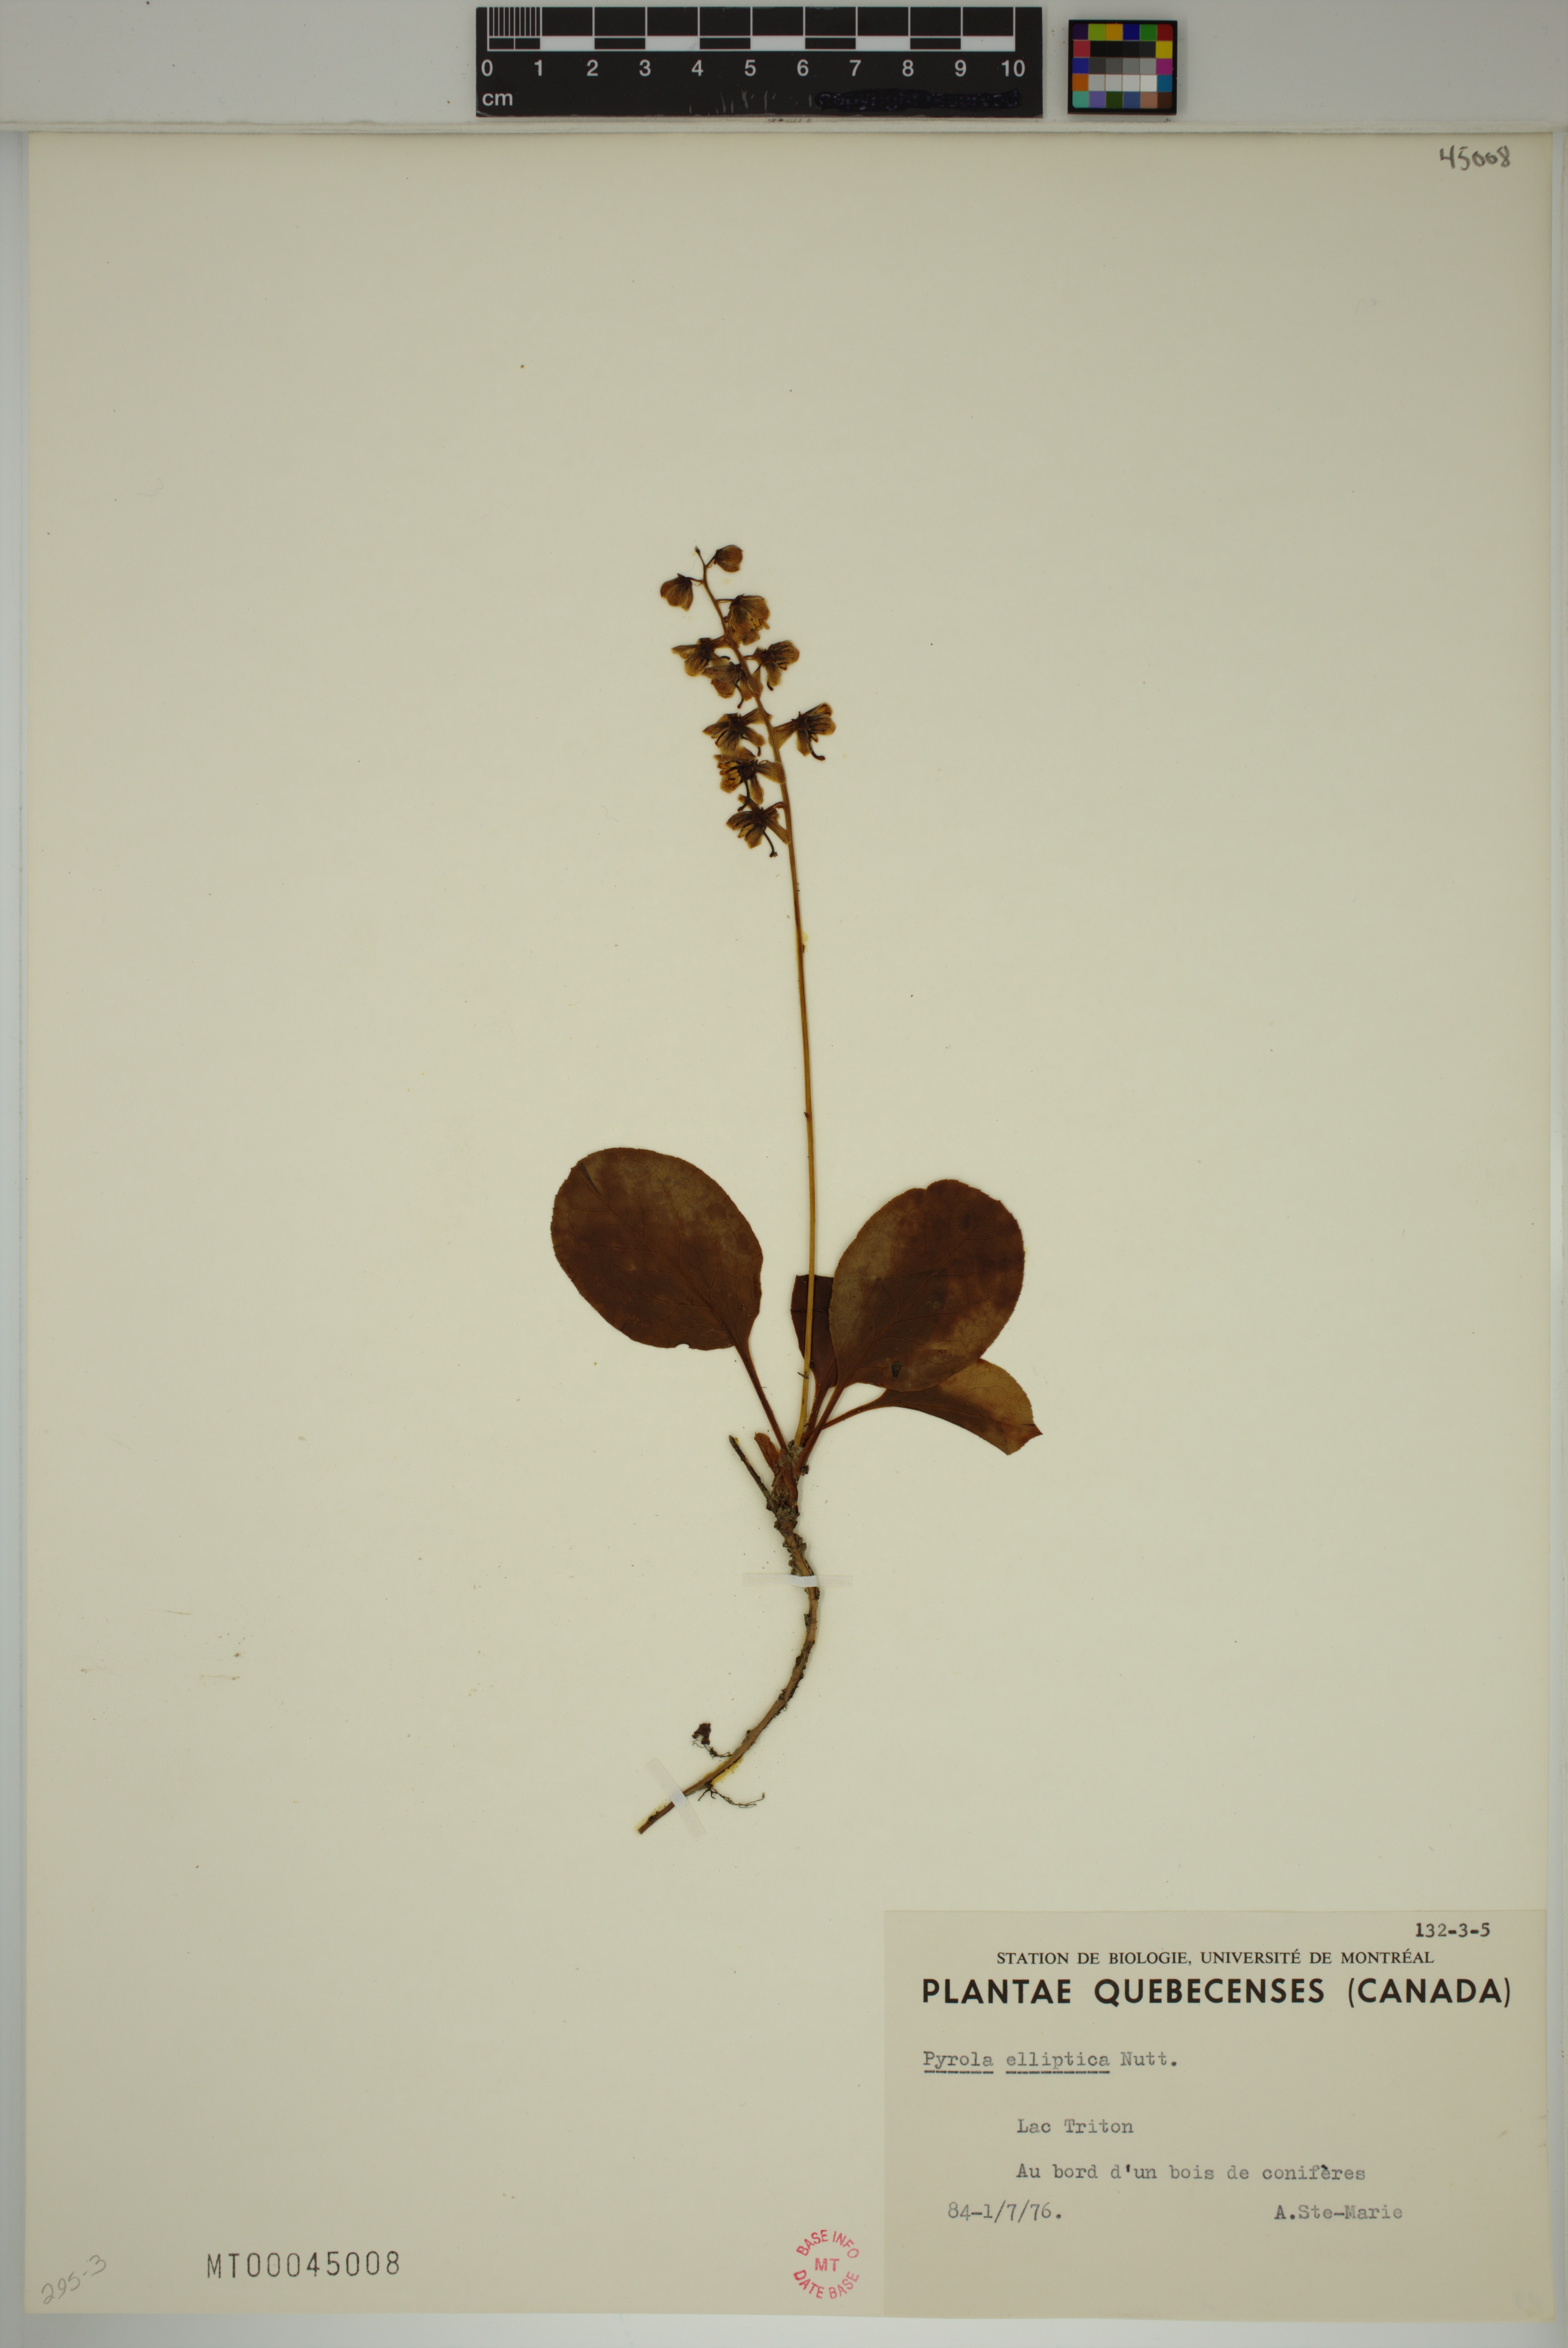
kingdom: Plantae
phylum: Tracheophyta
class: Magnoliopsida
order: Ericales
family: Ericaceae
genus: Pyrola
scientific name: Pyrola elliptica
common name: Shinleaf
